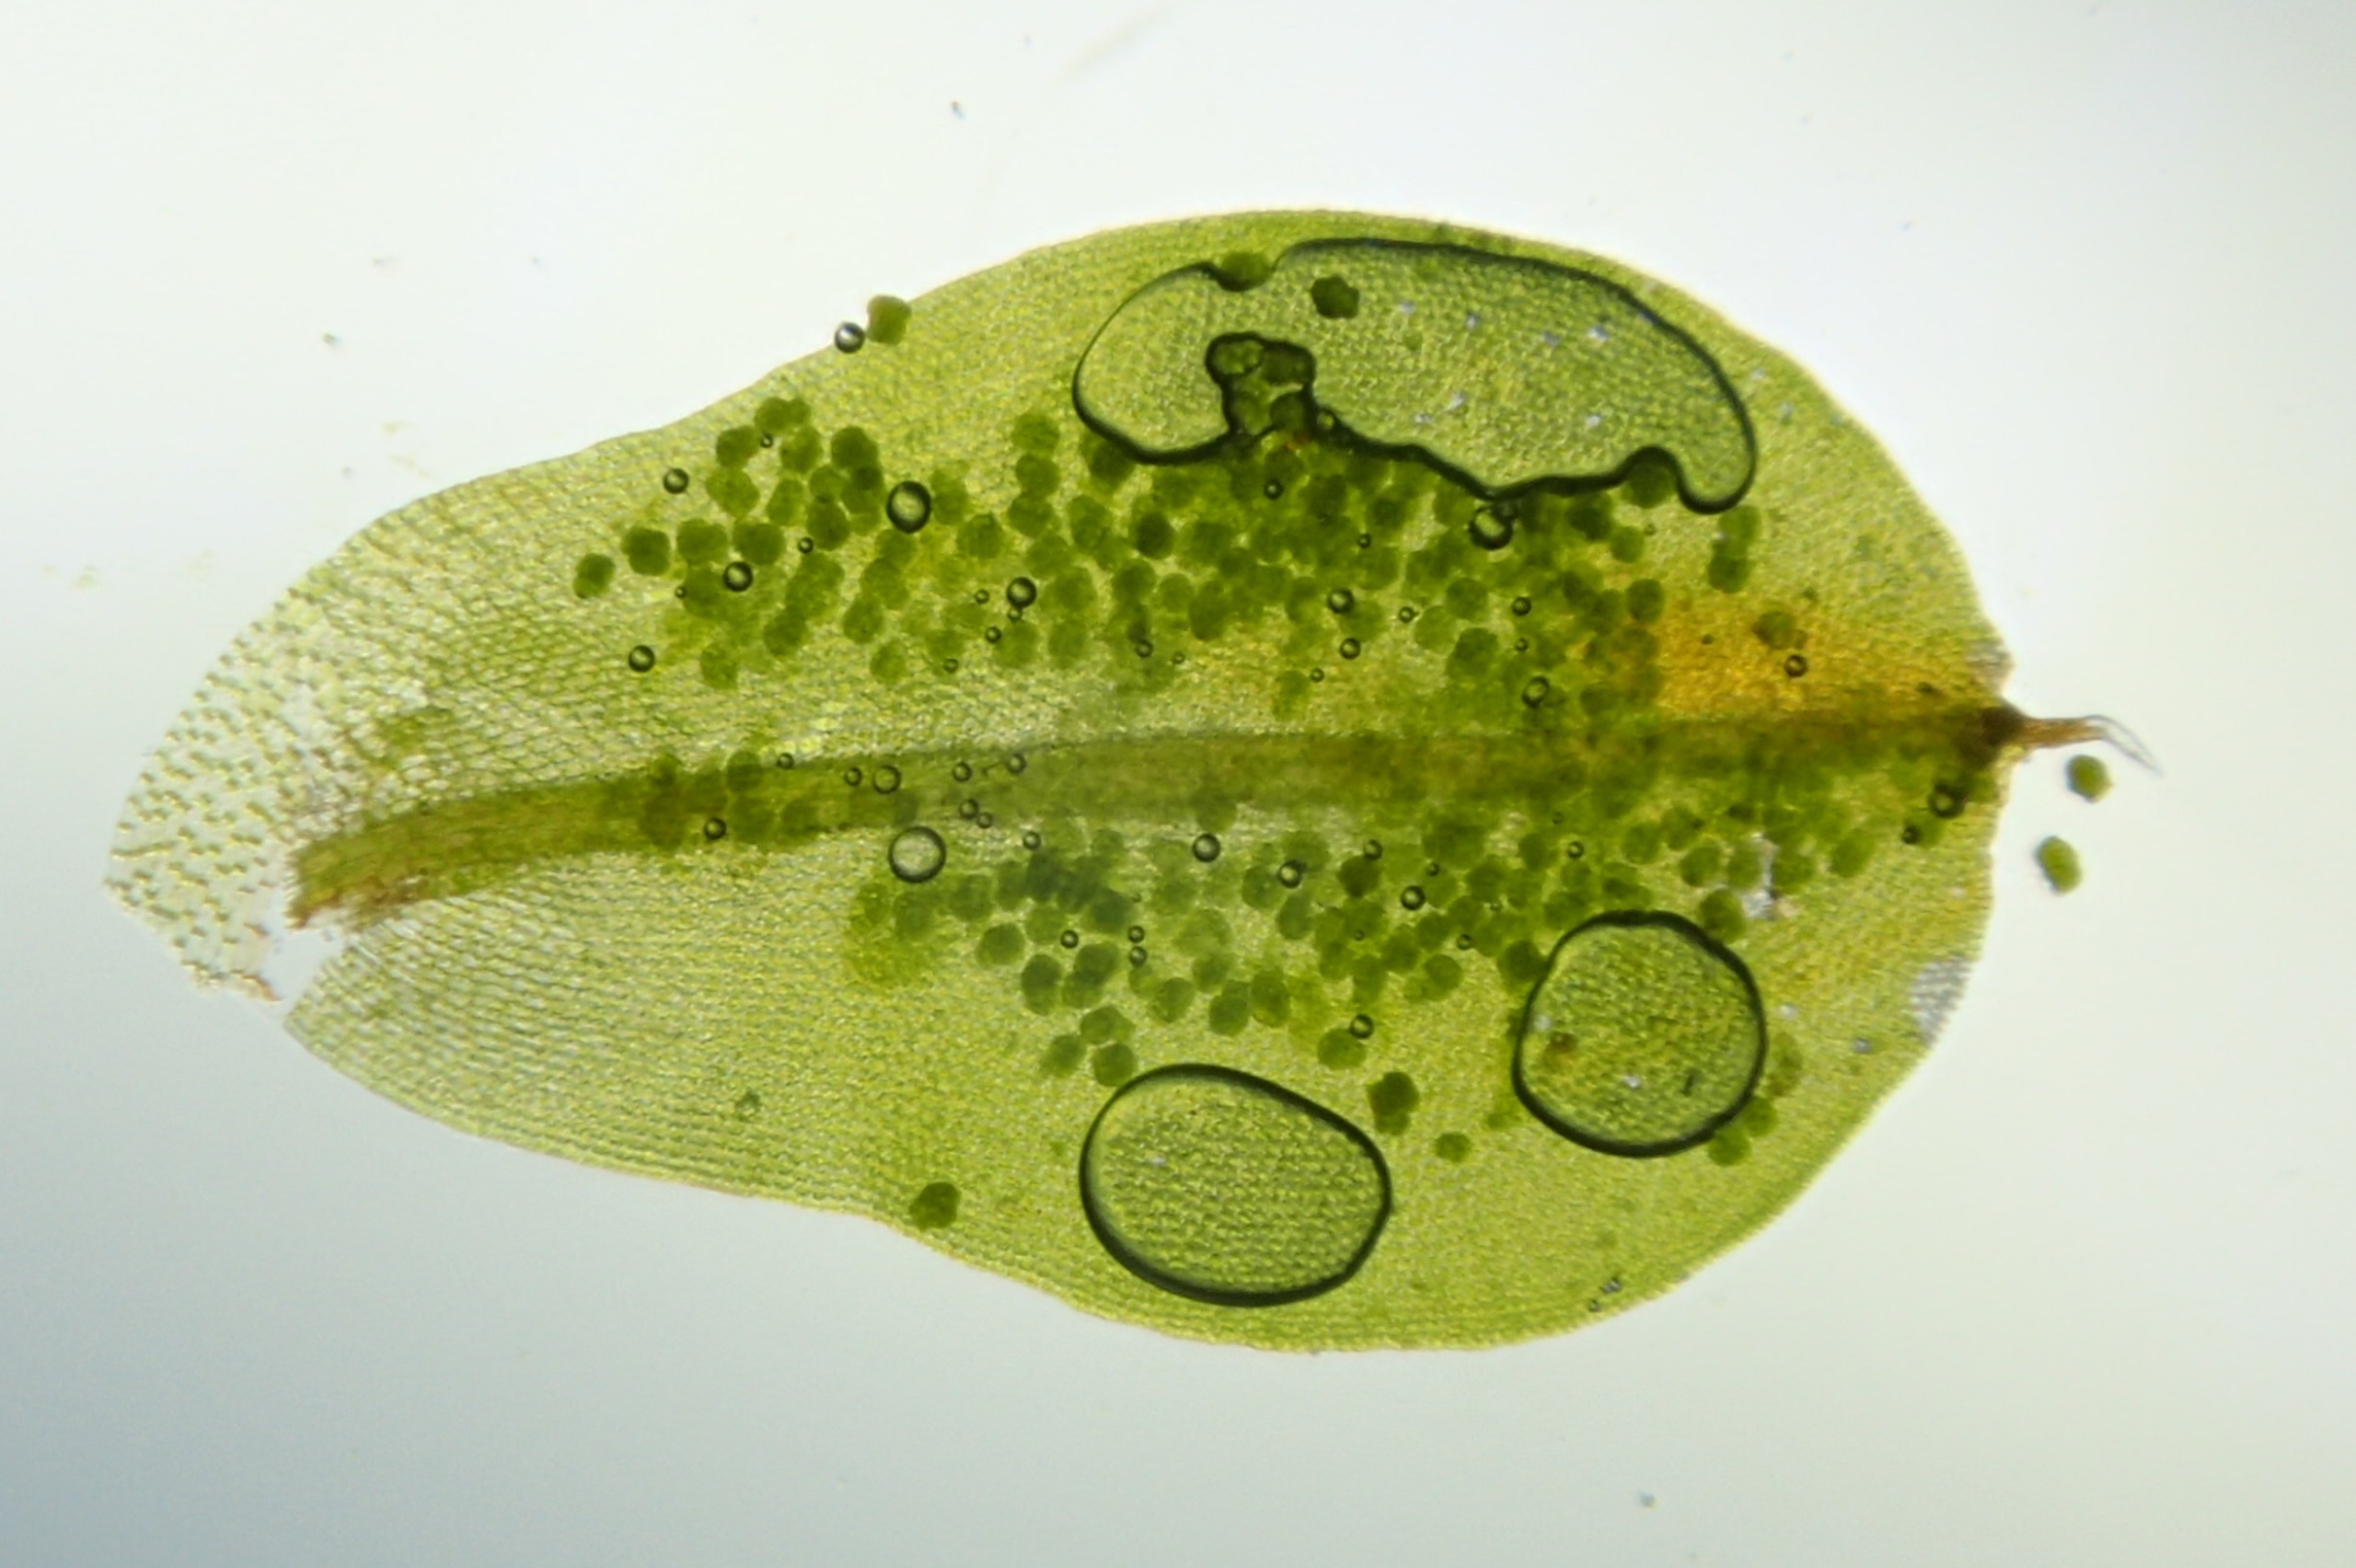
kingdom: Plantae
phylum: Bryophyta
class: Bryopsida
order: Pottiales
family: Pottiaceae
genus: Syntrichia
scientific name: Syntrichia papillosa
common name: Bark-hårstjerne
